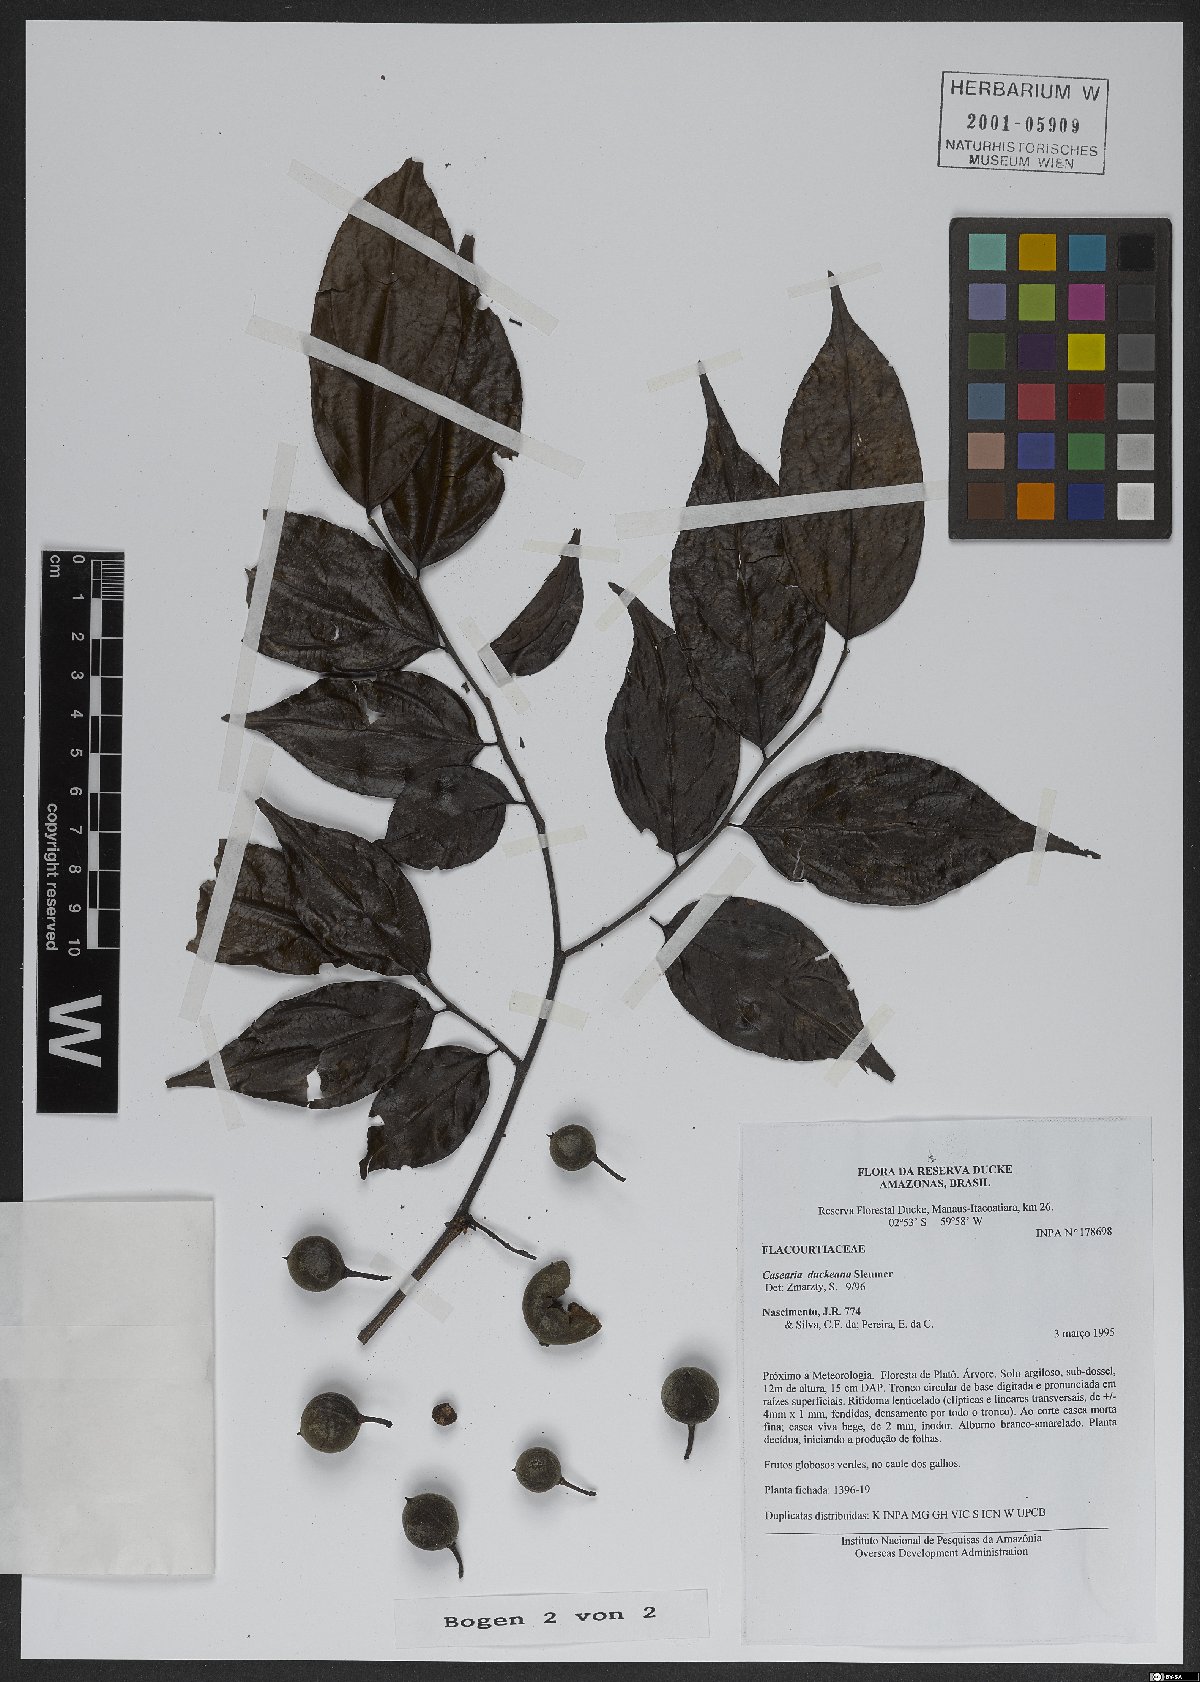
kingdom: Plantae
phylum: Tracheophyta
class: Magnoliopsida
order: Malpighiales
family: Salicaceae
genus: Casearia
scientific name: Casearia duckeana
